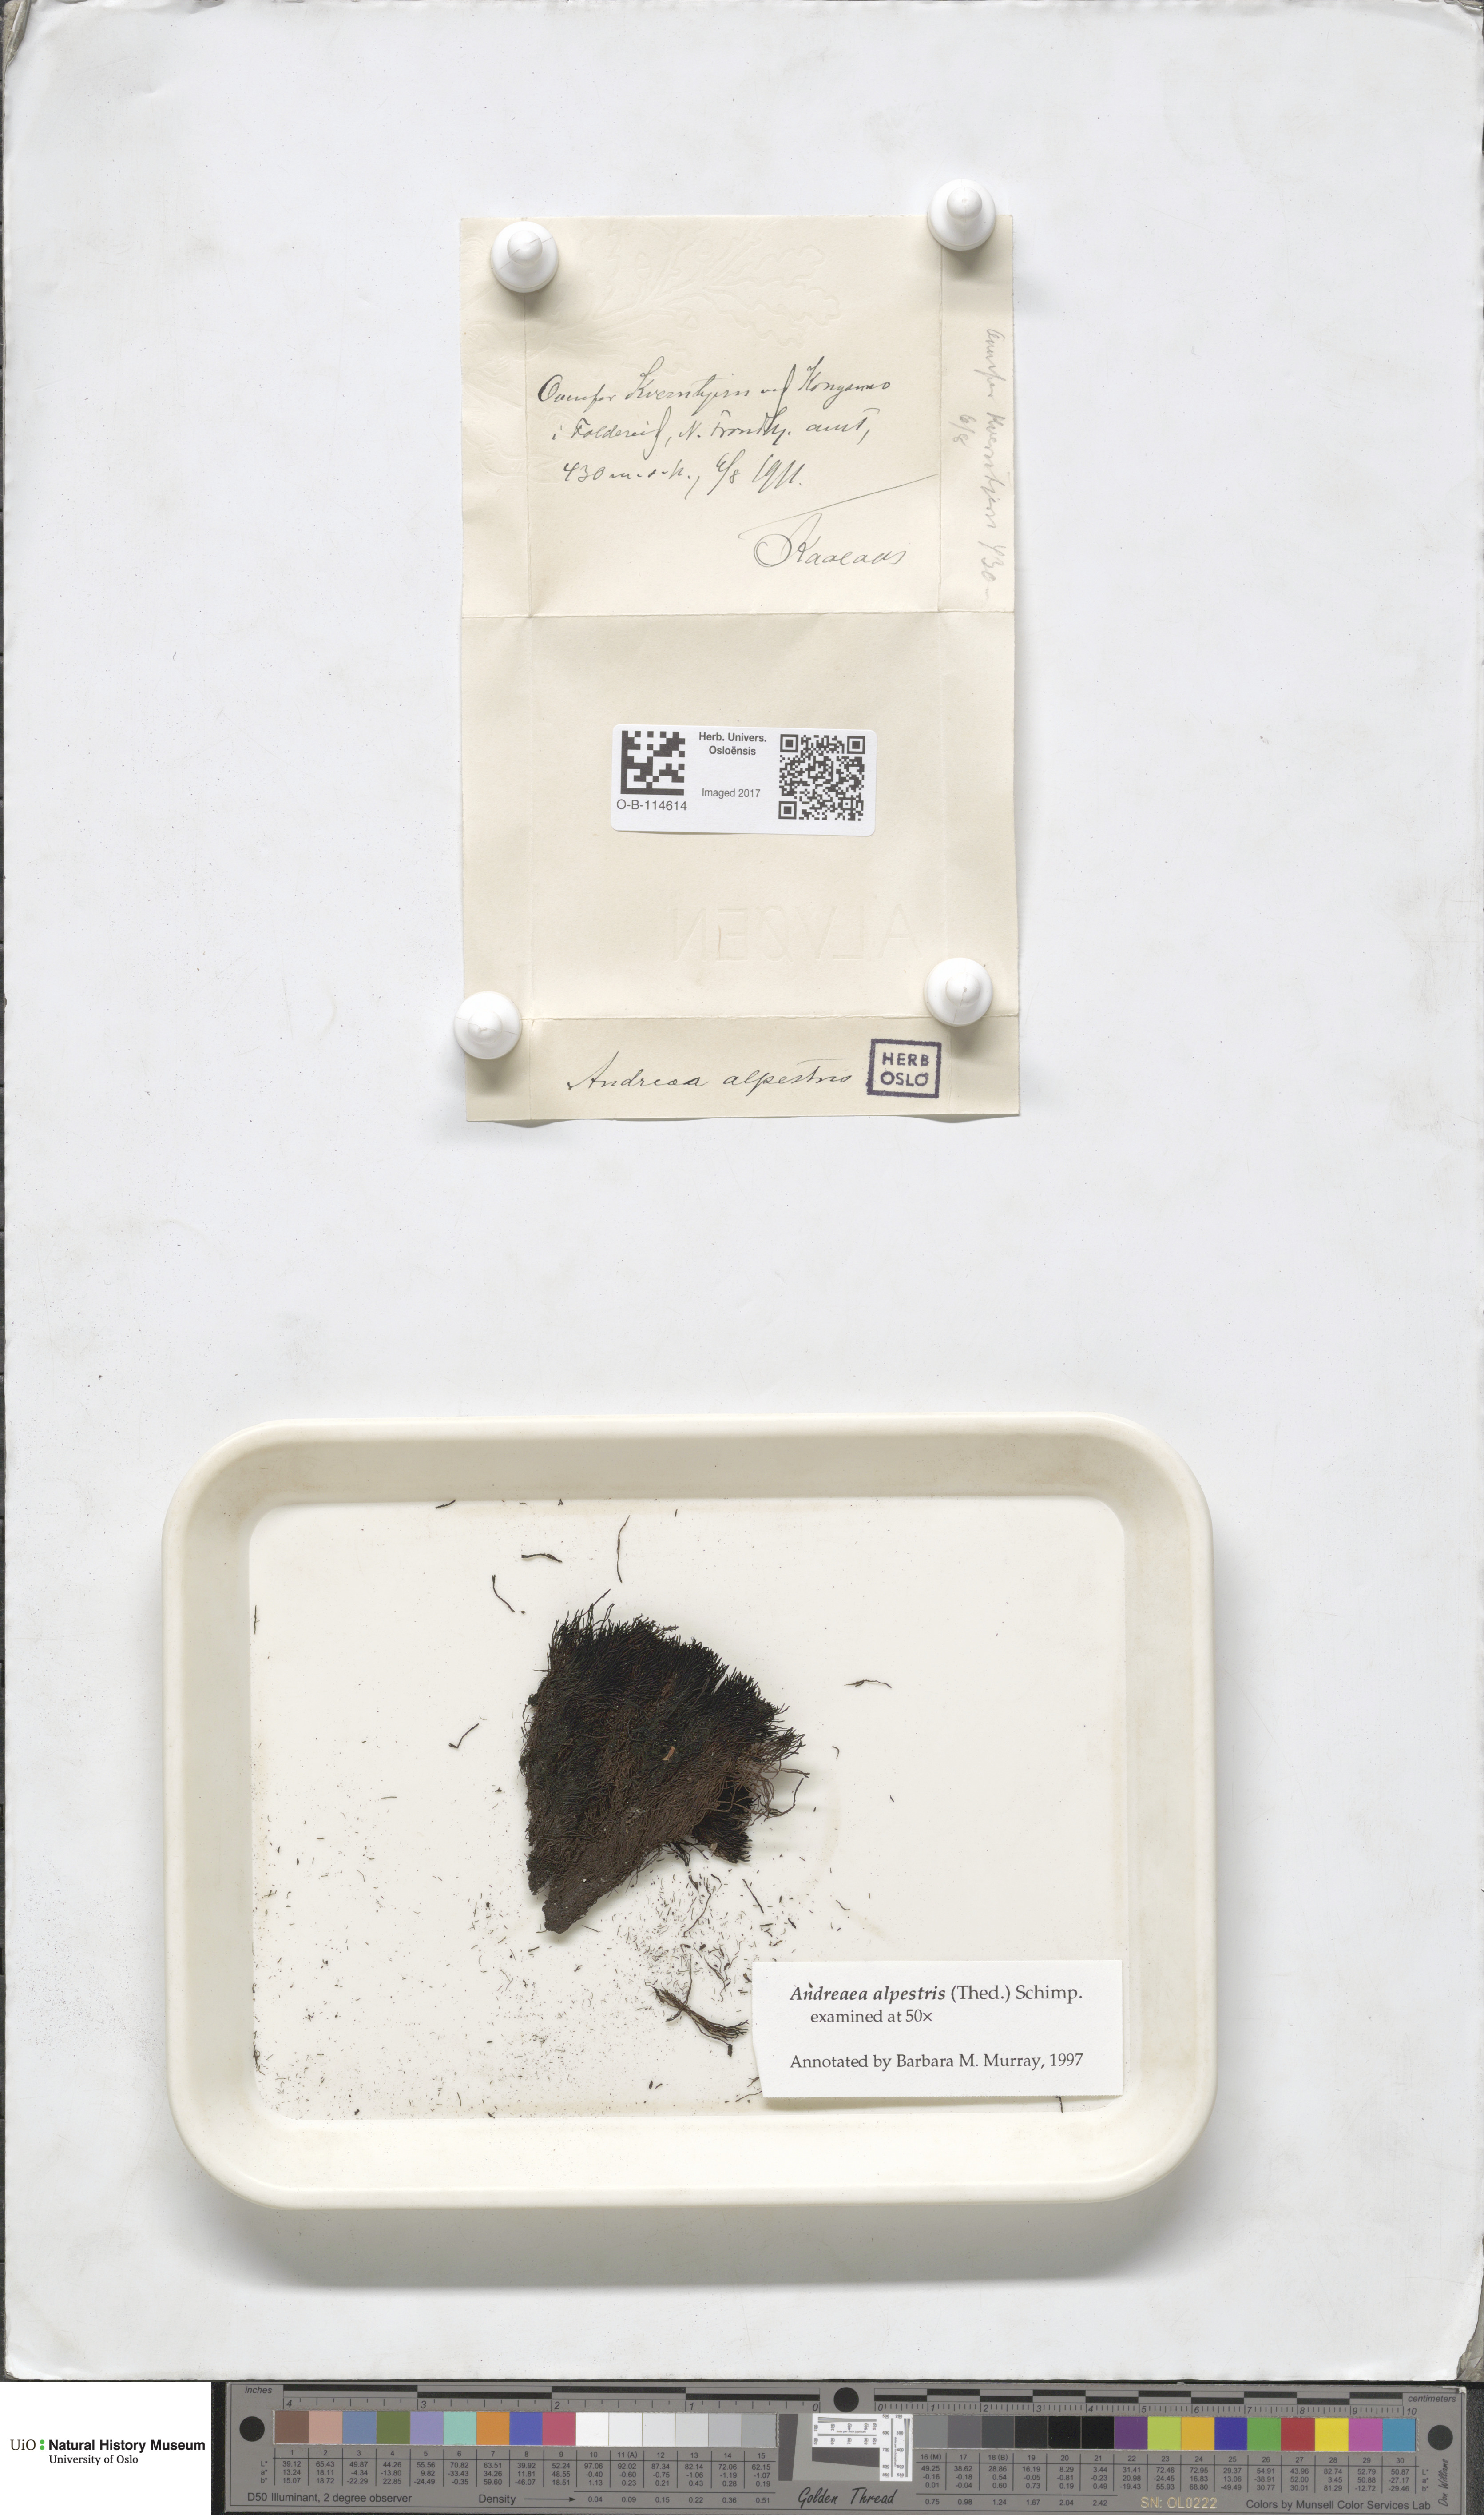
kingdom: Plantae
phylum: Bryophyta
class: Andreaeopsida
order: Andreaeales
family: Andreaeaceae
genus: Andreaea
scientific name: Andreaea alpestris
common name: Slender rock-moss
